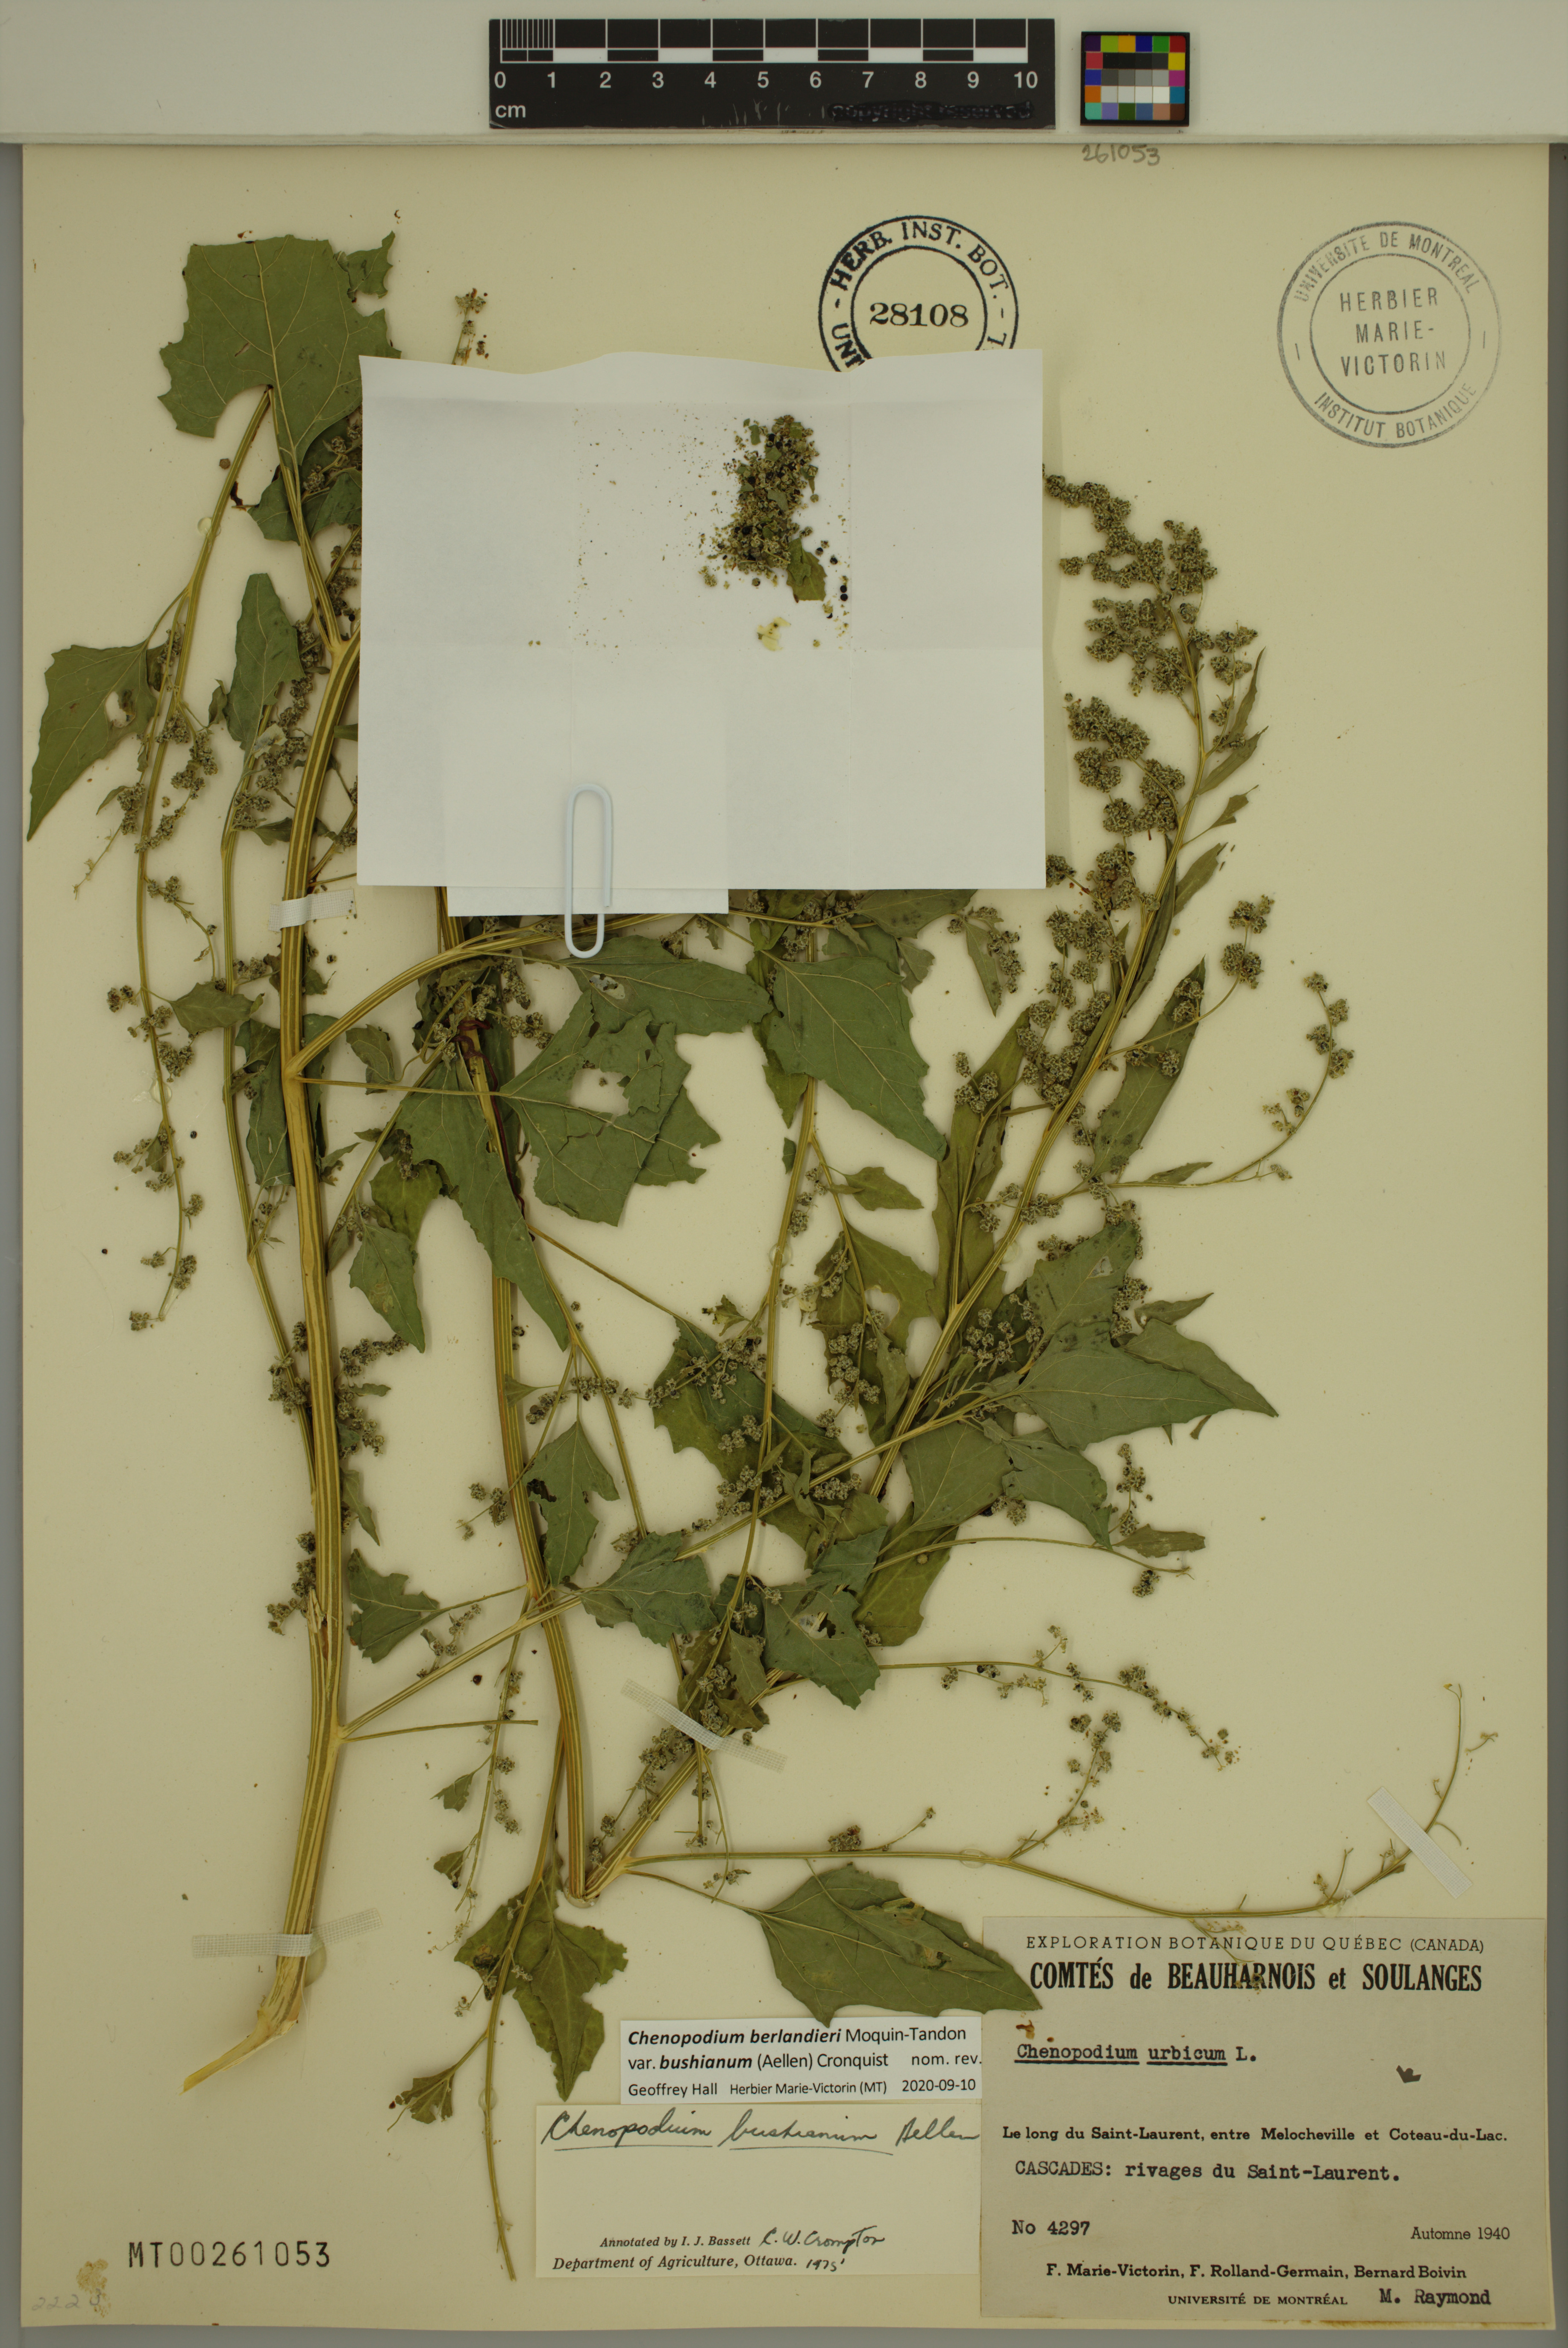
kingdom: Plantae
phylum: Tracheophyta
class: Magnoliopsida
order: Caryophyllales
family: Amaranthaceae
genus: Chenopodium
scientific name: Chenopodium berlandieri
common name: Pit-seed goosefoot
